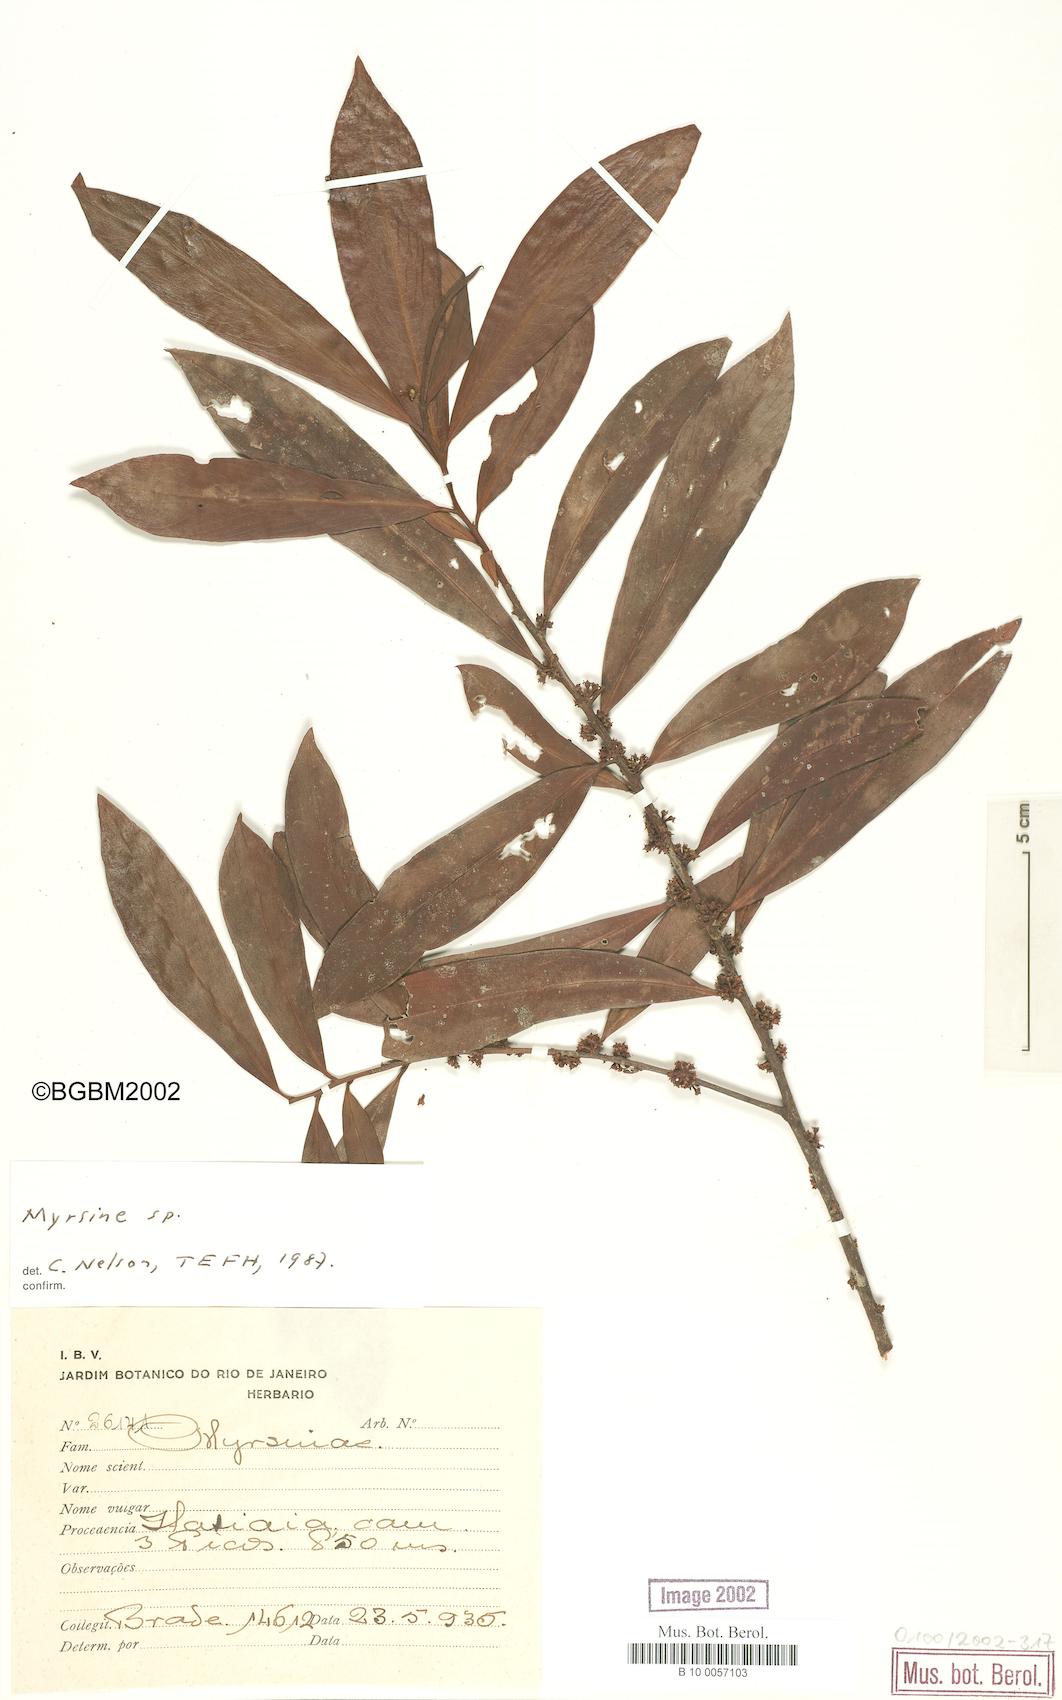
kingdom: Plantae
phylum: Tracheophyta
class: Magnoliopsida
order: Ericales
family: Primulaceae
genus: Myrsine
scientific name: Myrsine
